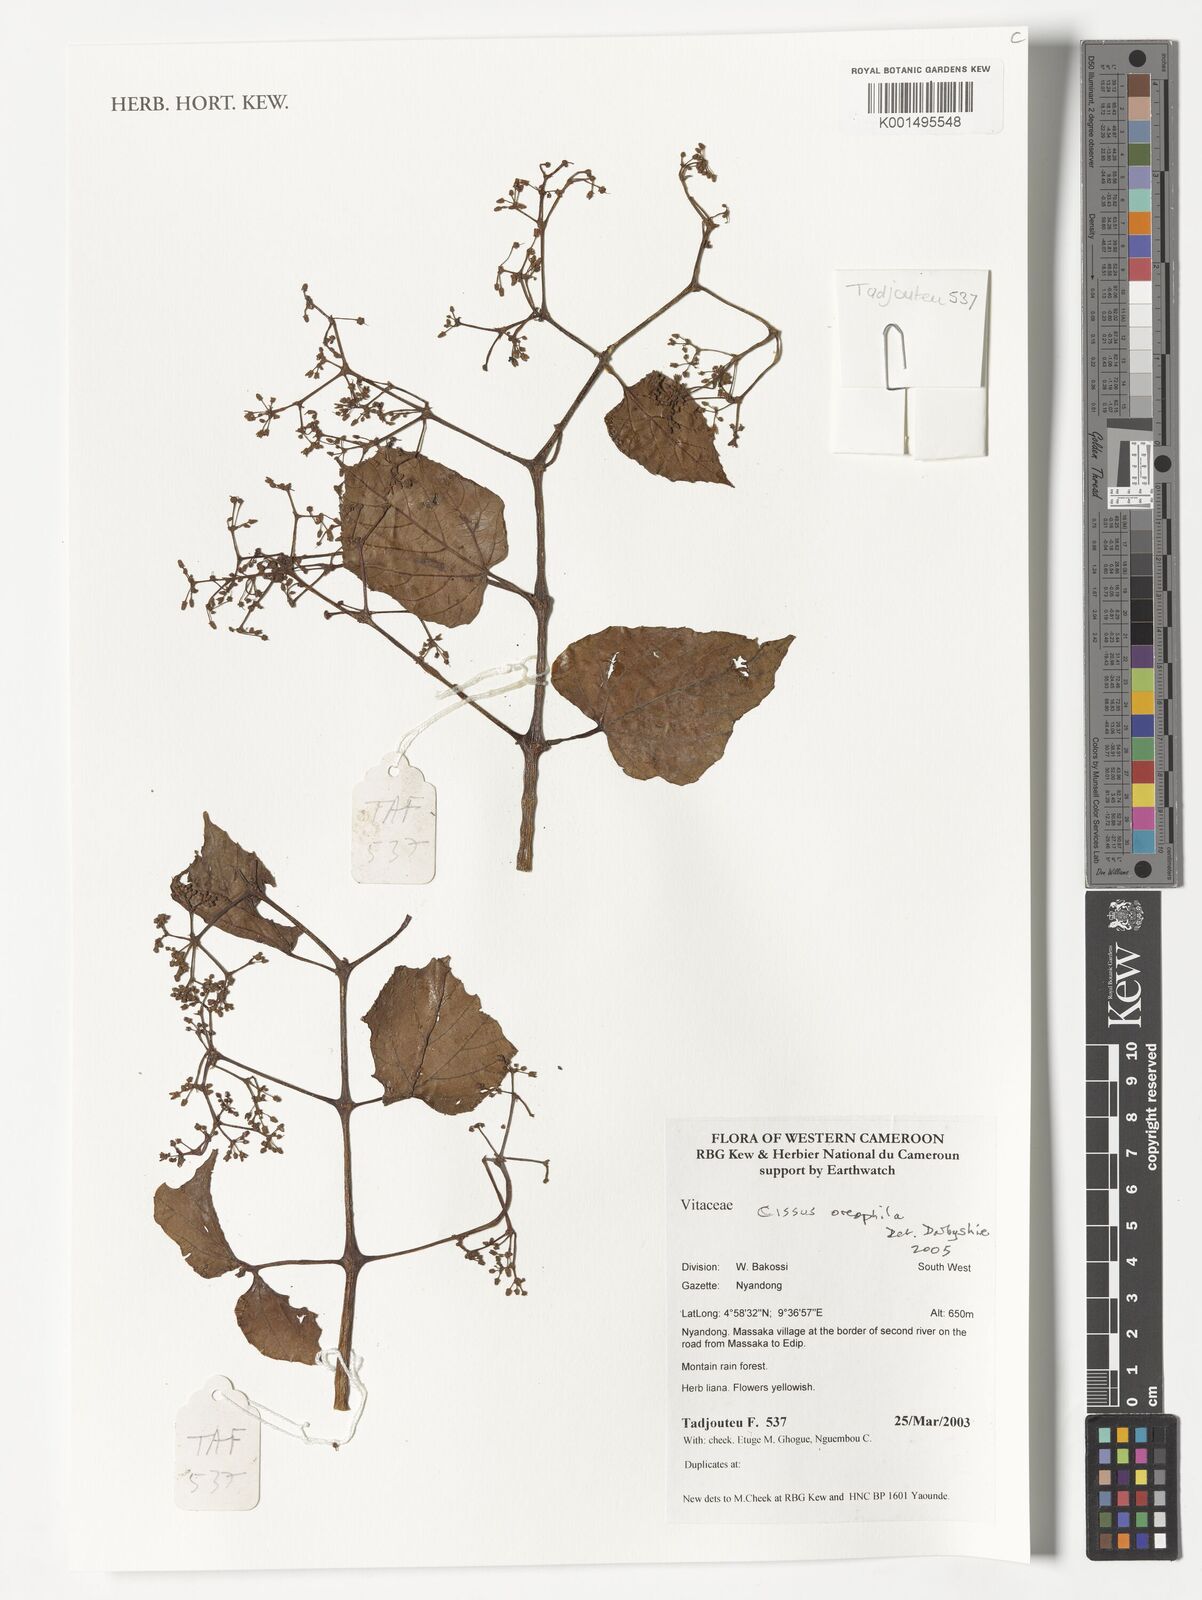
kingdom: Plantae
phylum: Tracheophyta
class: Magnoliopsida
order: Vitales
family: Vitaceae
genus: Cissus
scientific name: Cissus oreophila
